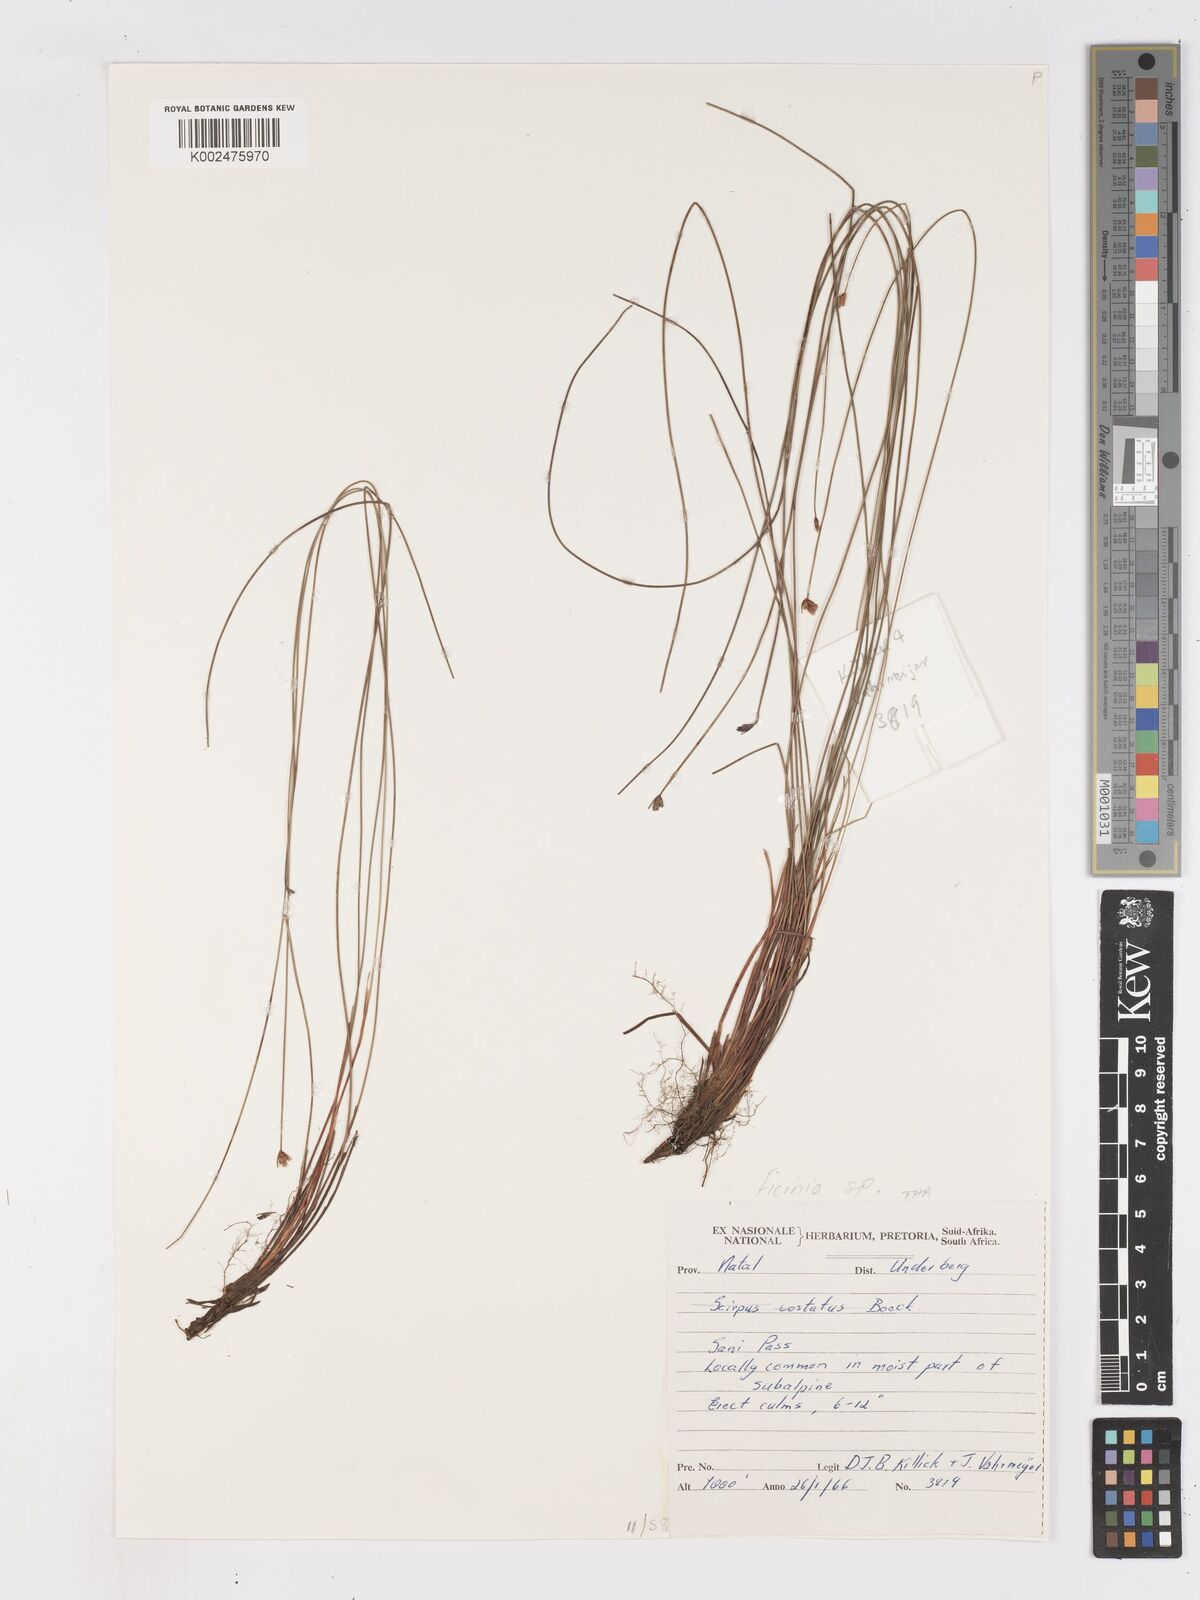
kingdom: Plantae
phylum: Tracheophyta
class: Liliopsida
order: Poales
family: Cyperaceae
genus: Ficinia
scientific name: Ficinia filiculmea
